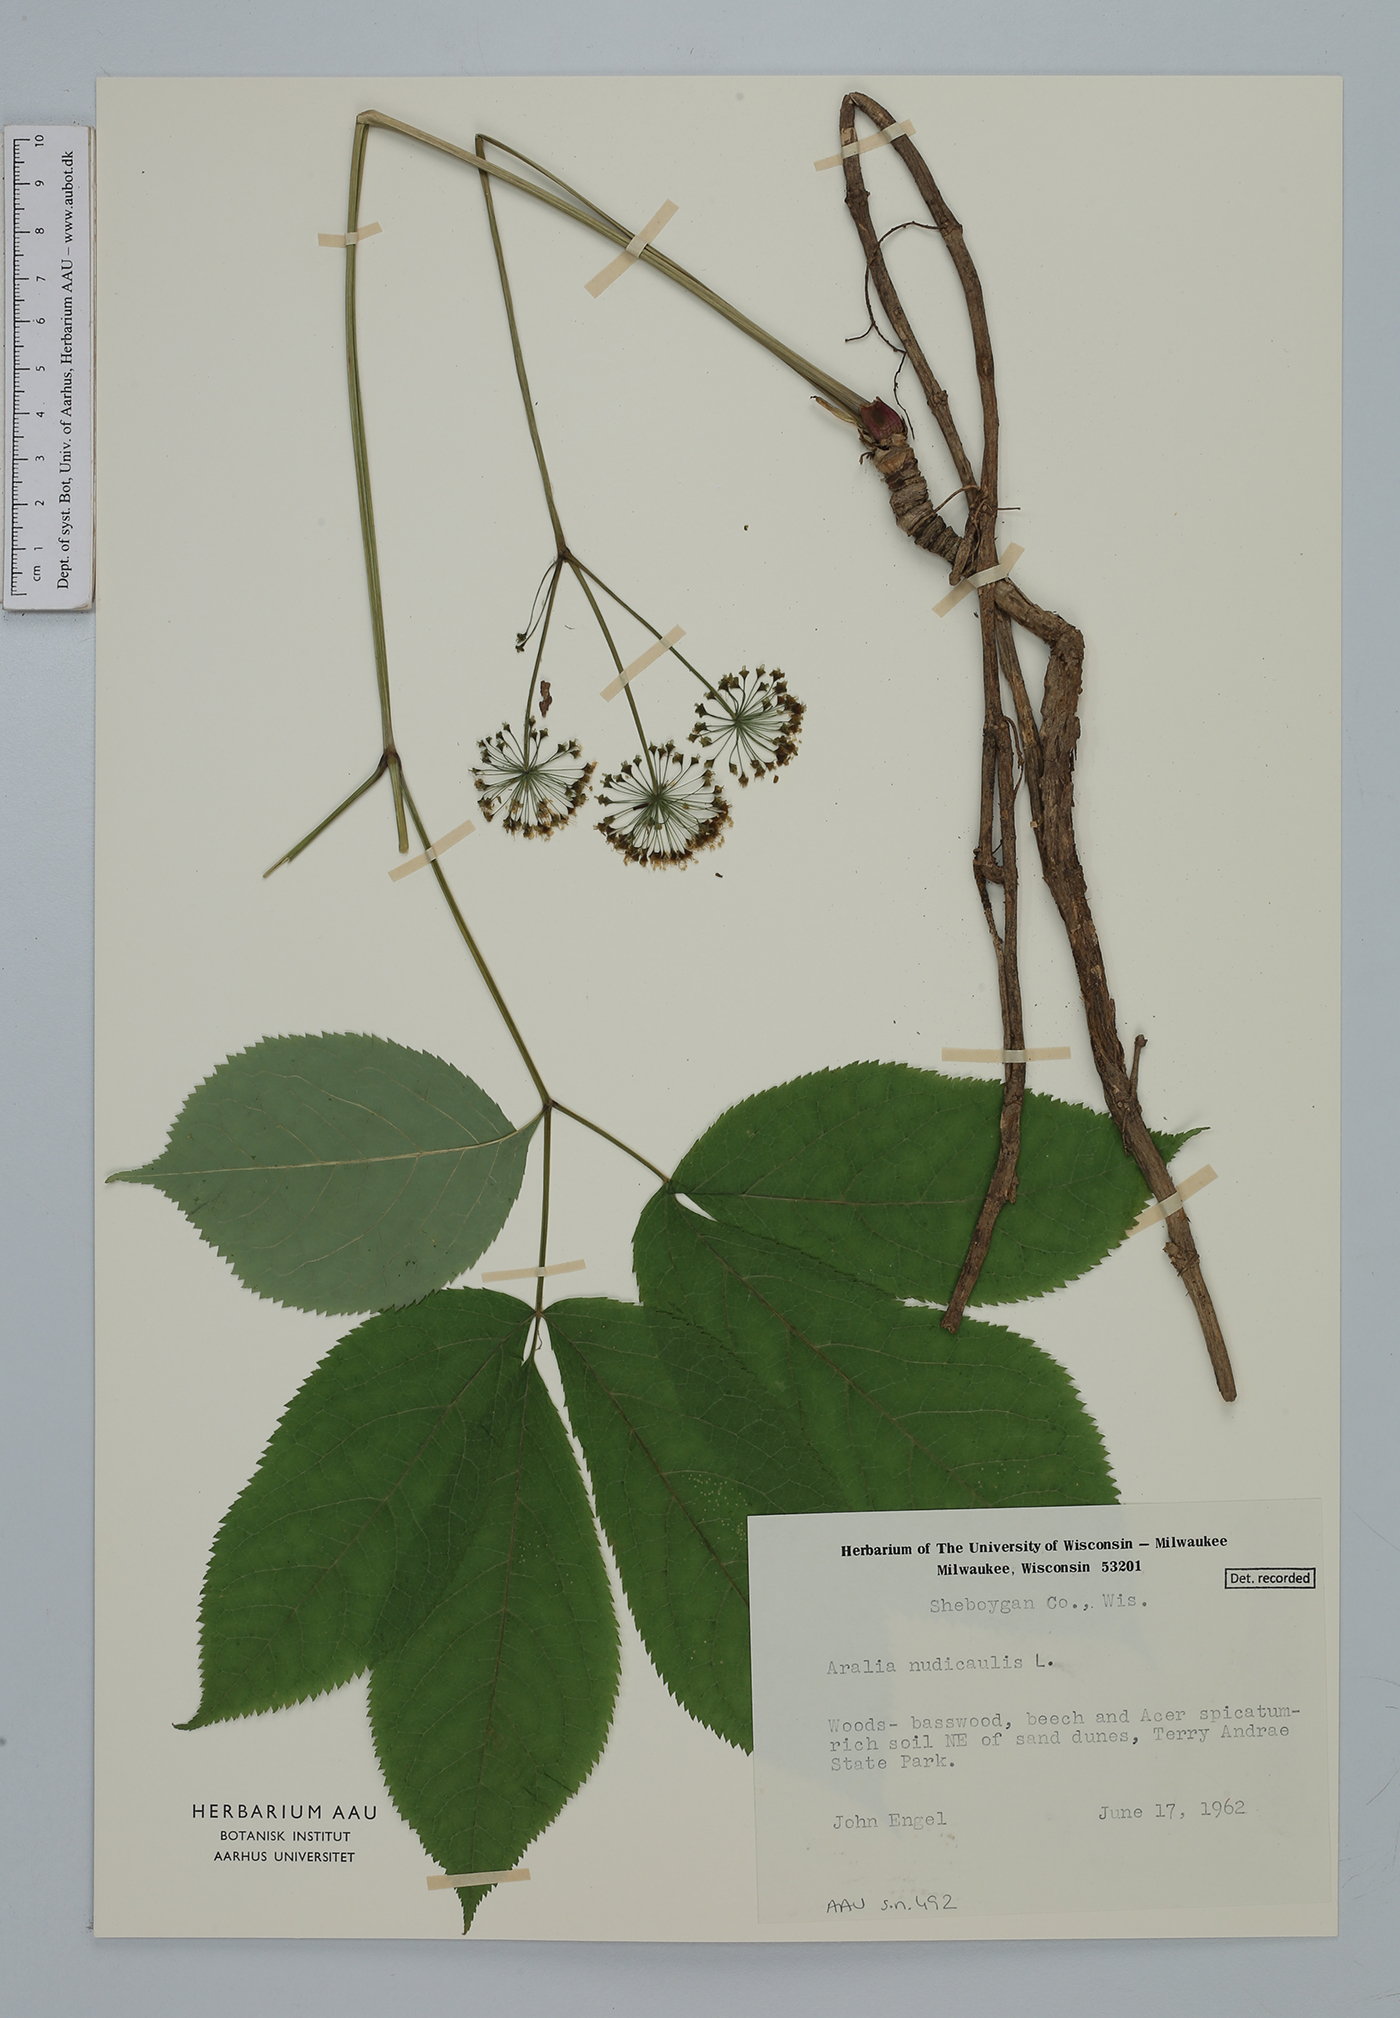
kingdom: Plantae
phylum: Tracheophyta
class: Magnoliopsida
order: Apiales
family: Araliaceae
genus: Aralia
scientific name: Aralia nudicaulis
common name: Wild sarsaparilla
